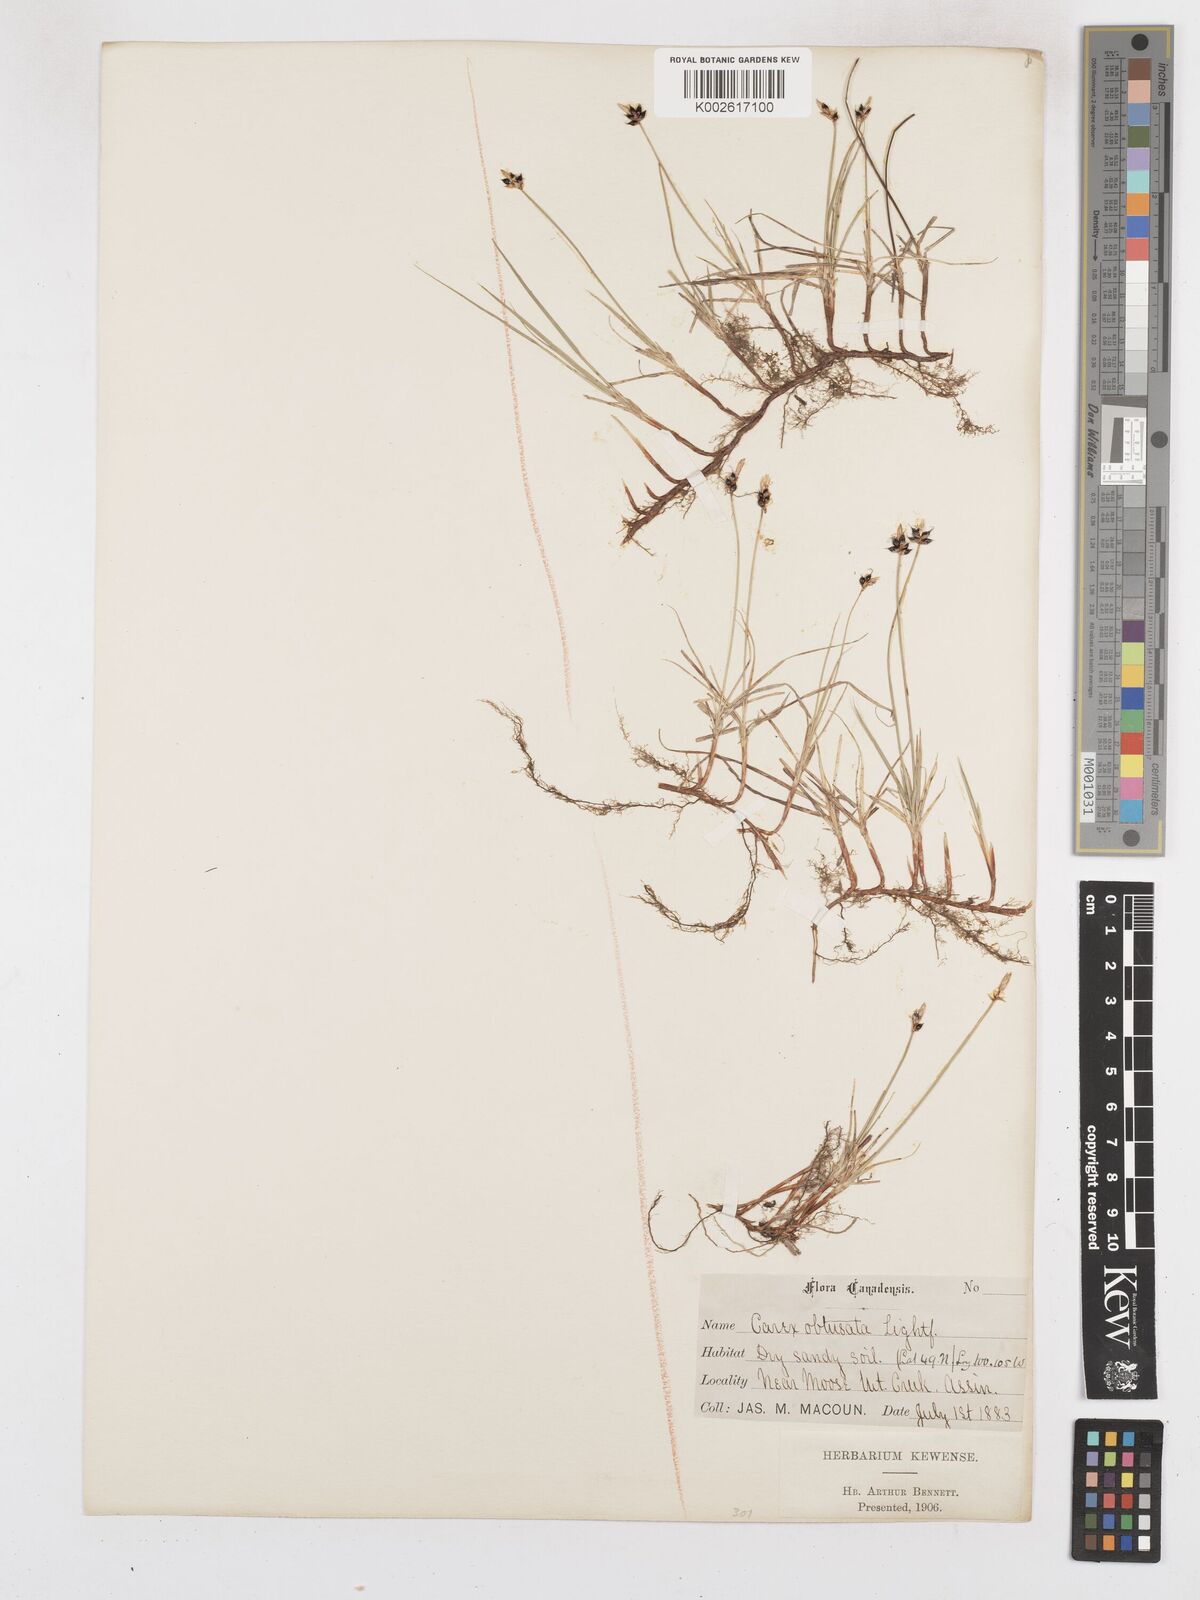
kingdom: Plantae
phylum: Tracheophyta
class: Liliopsida
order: Poales
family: Cyperaceae
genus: Carex
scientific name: Carex obtusata
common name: Blunt sedge
